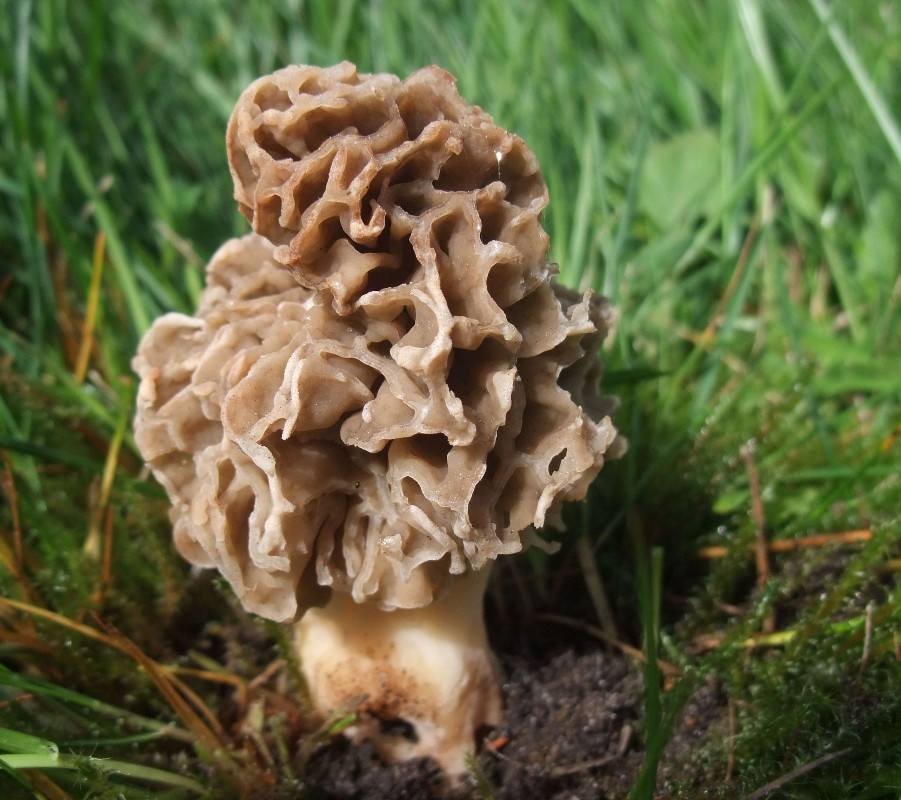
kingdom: Fungi
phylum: Ascomycota
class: Pezizomycetes
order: Pezizales
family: Morchellaceae
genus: Morchella
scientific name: Morchella esculenta
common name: almindelig morkel
